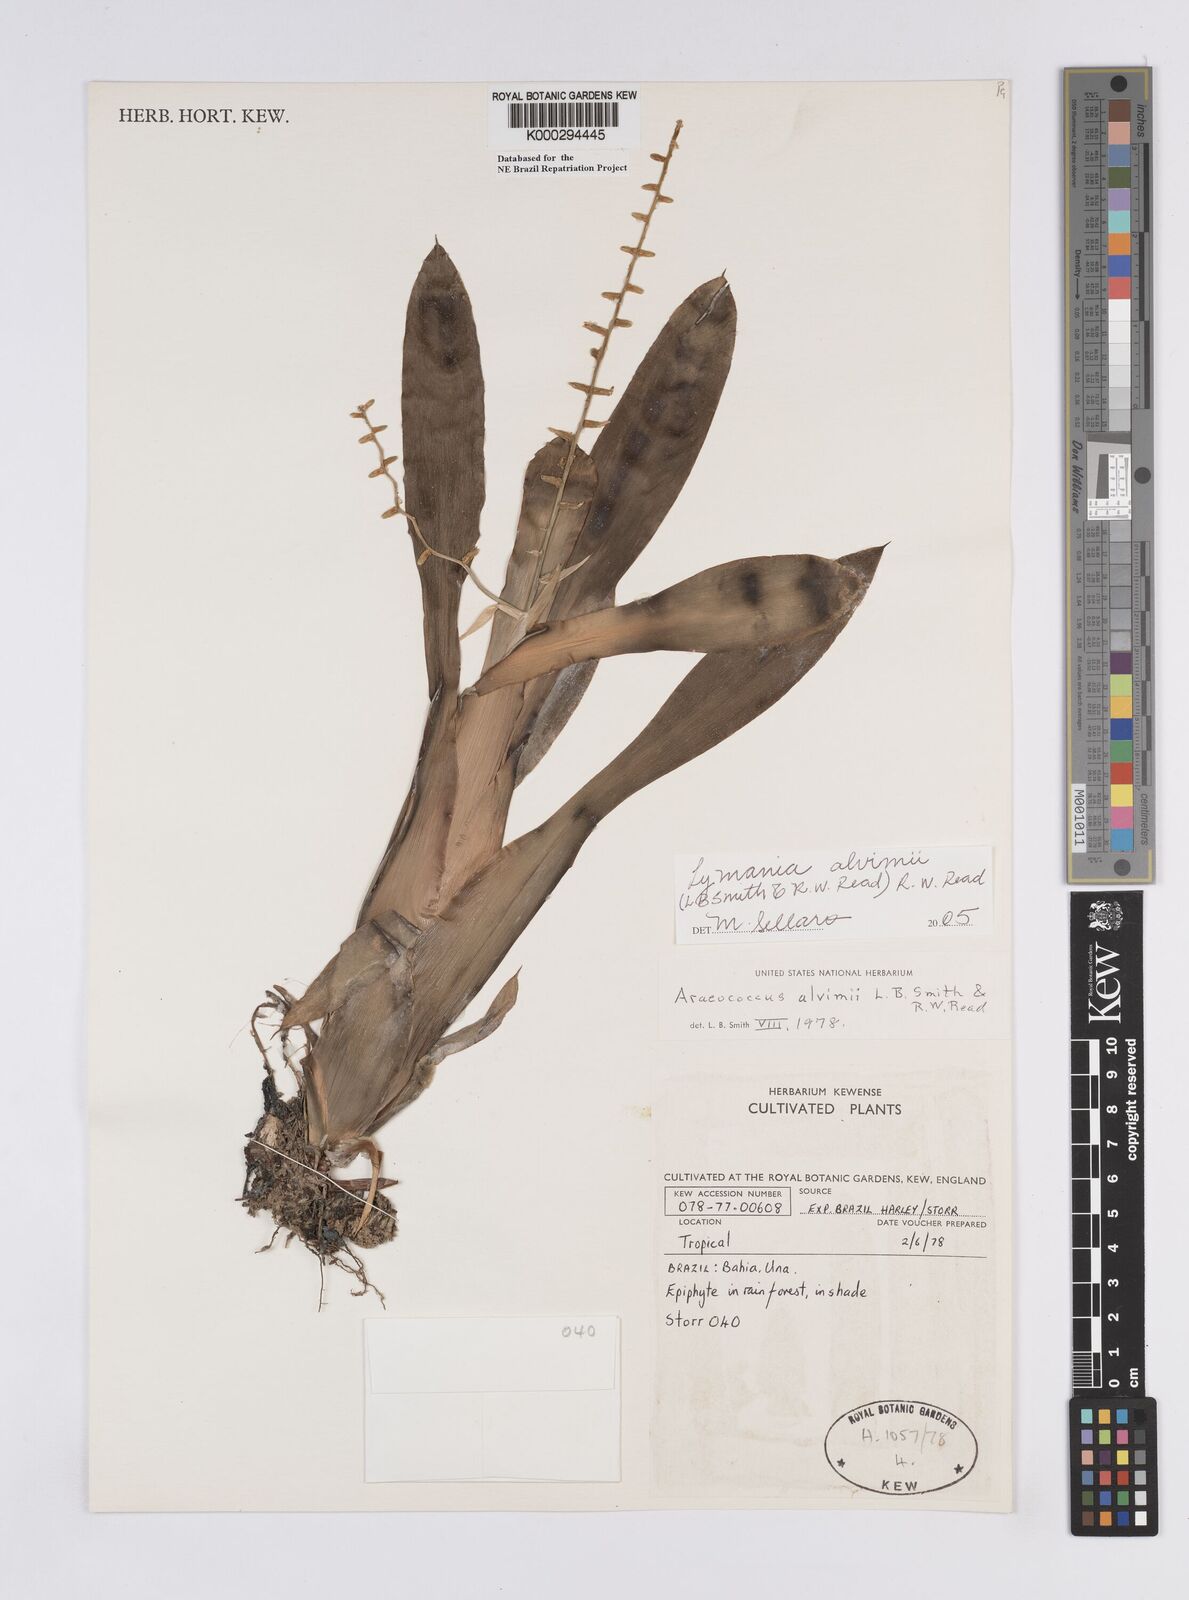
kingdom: Plantae
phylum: Tracheophyta
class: Liliopsida
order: Poales
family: Bromeliaceae
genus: Lymania
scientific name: Lymania alvimii
